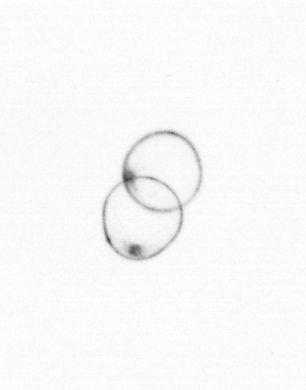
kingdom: Chromista
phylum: Myzozoa
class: Dinophyceae
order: Noctilucales
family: Noctilucaceae
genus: Noctiluca
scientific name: Noctiluca scintillans
